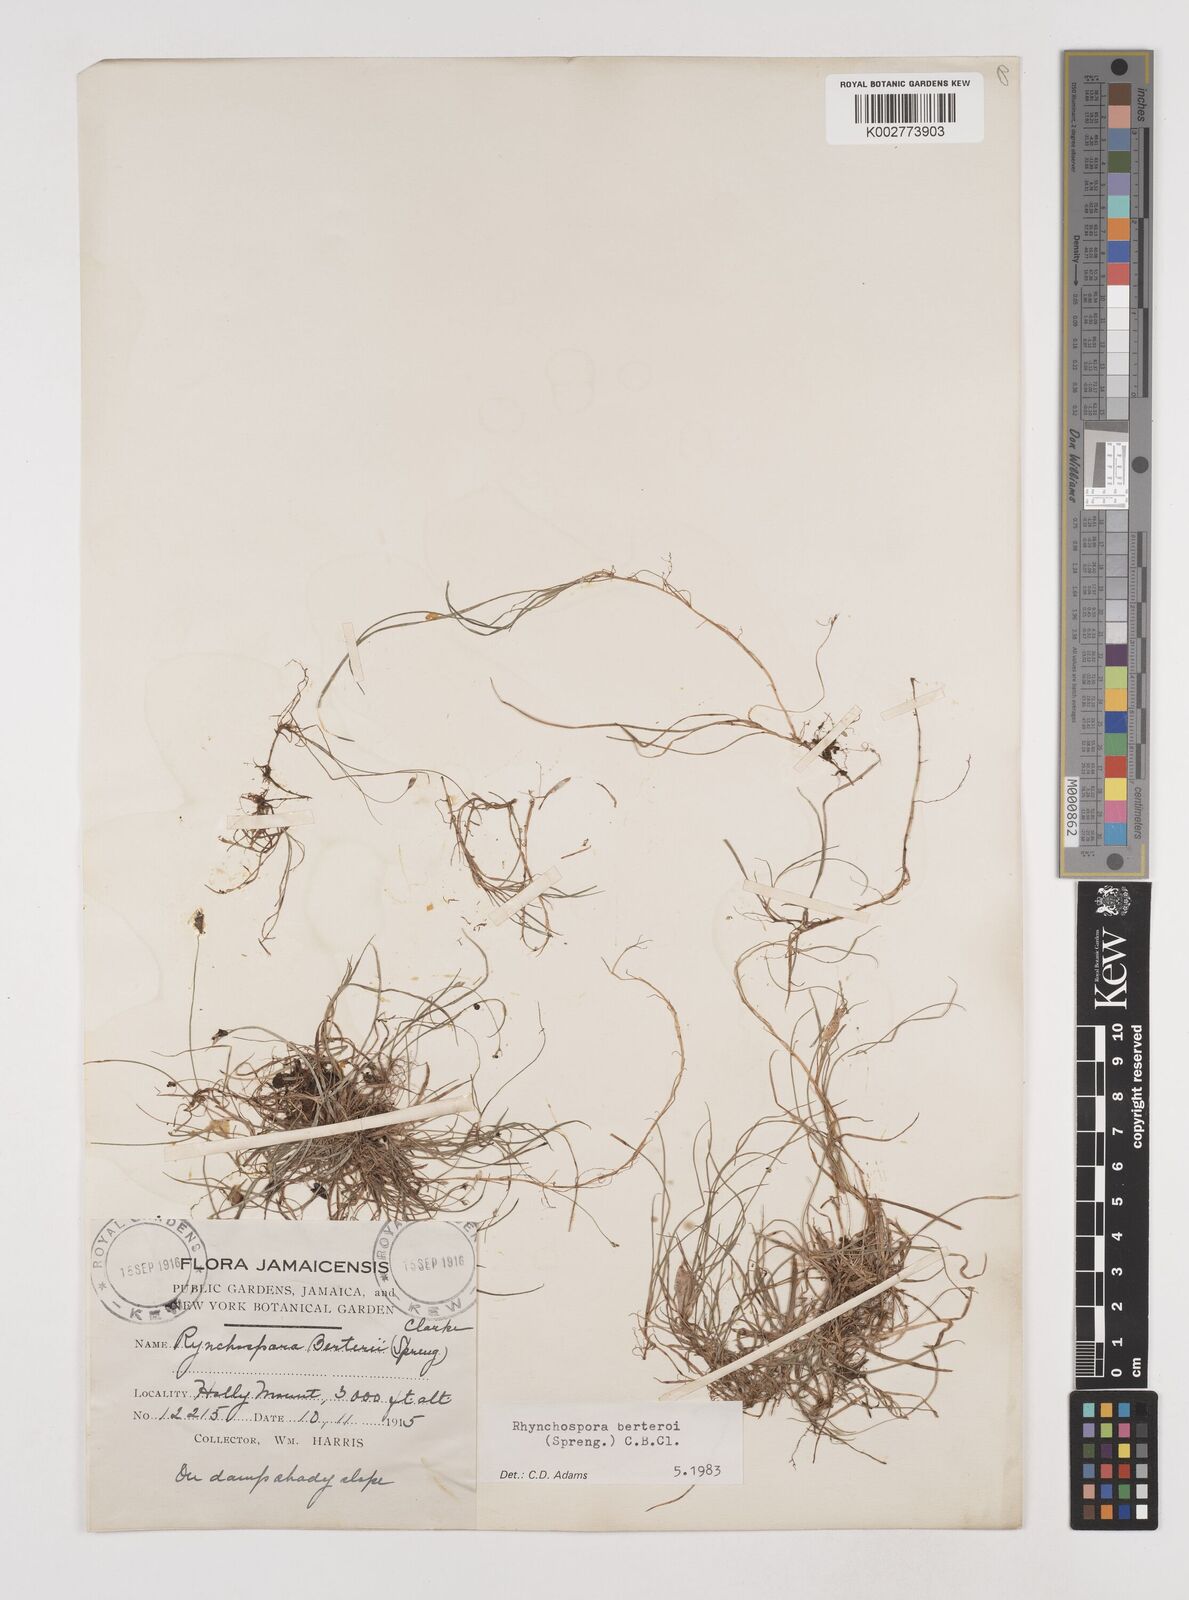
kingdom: Plantae
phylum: Tracheophyta
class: Liliopsida
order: Poales
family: Cyperaceae
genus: Rhynchospora
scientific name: Rhynchospora berteroi
